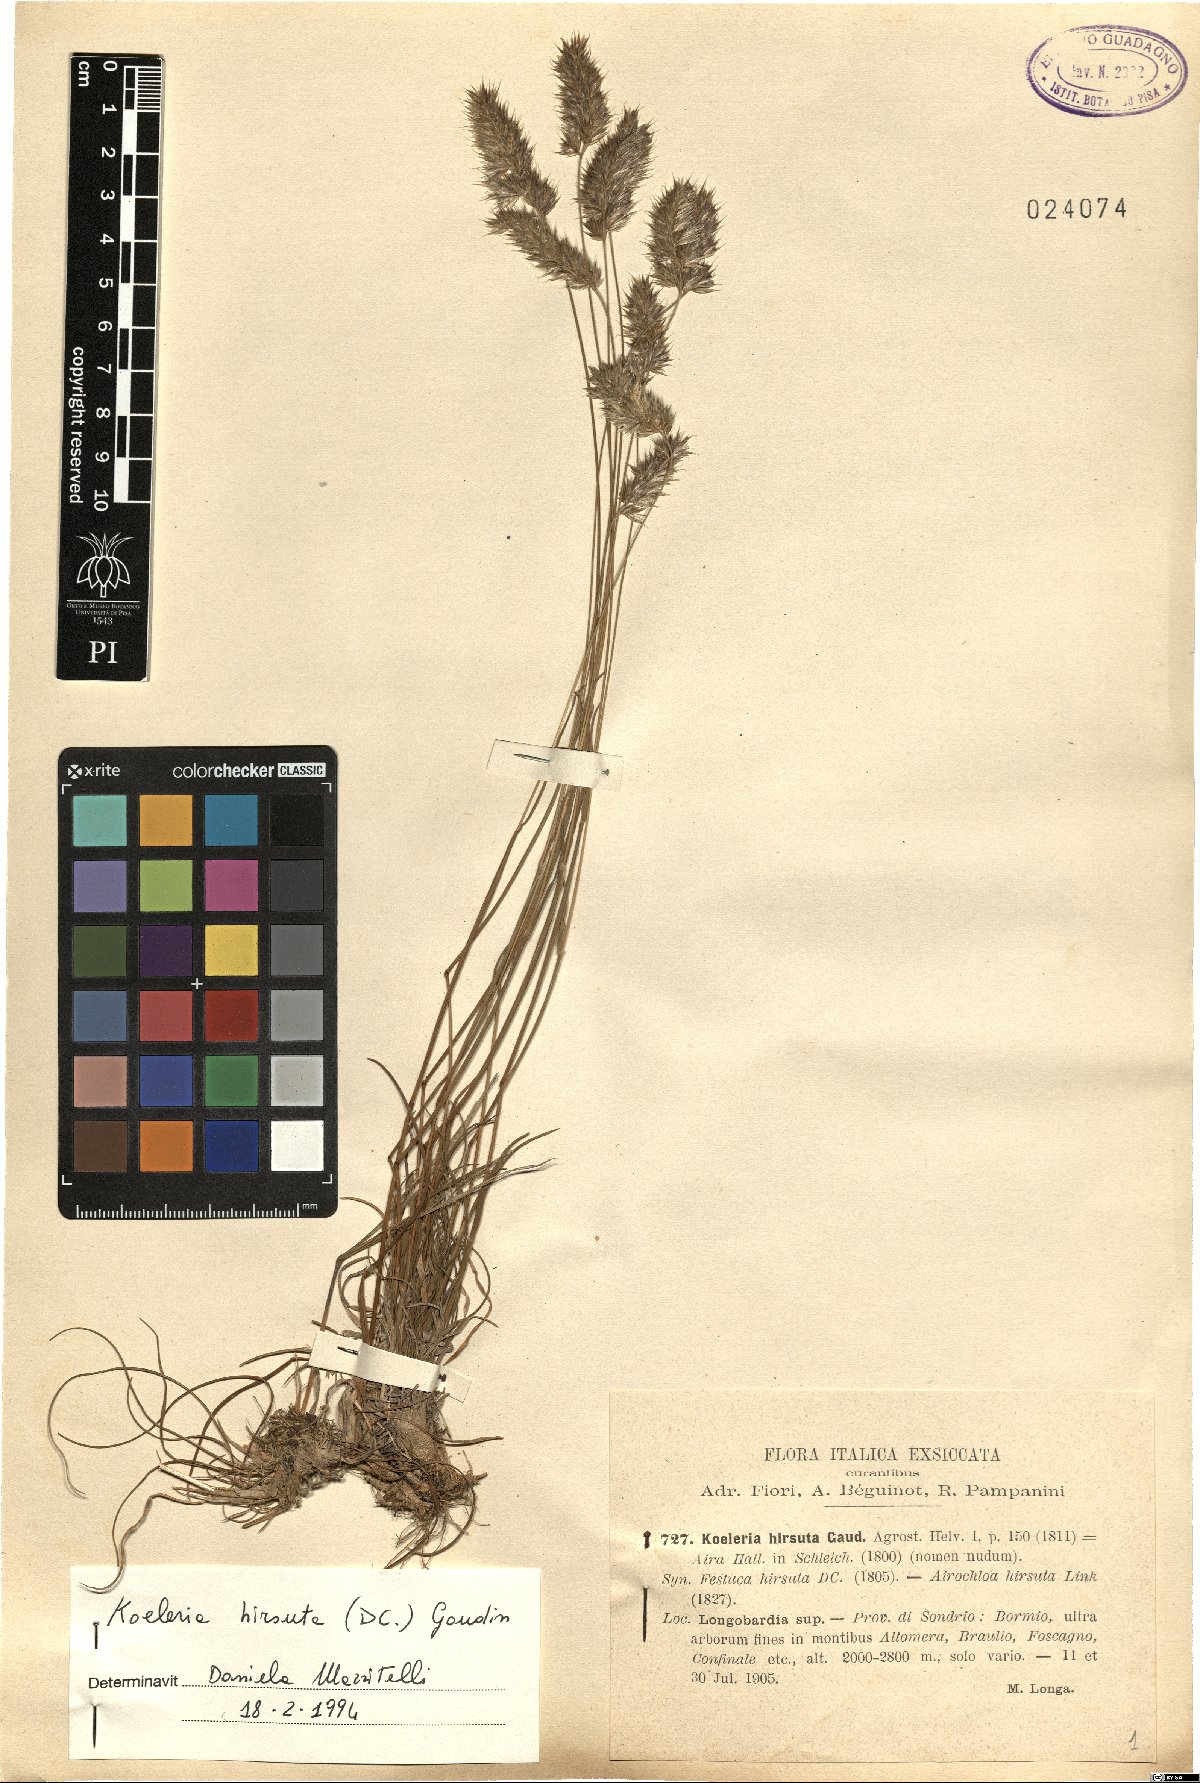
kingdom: Plantae
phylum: Tracheophyta
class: Liliopsida
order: Poales
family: Poaceae
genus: Koeleria
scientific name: Koeleria hirsuta
